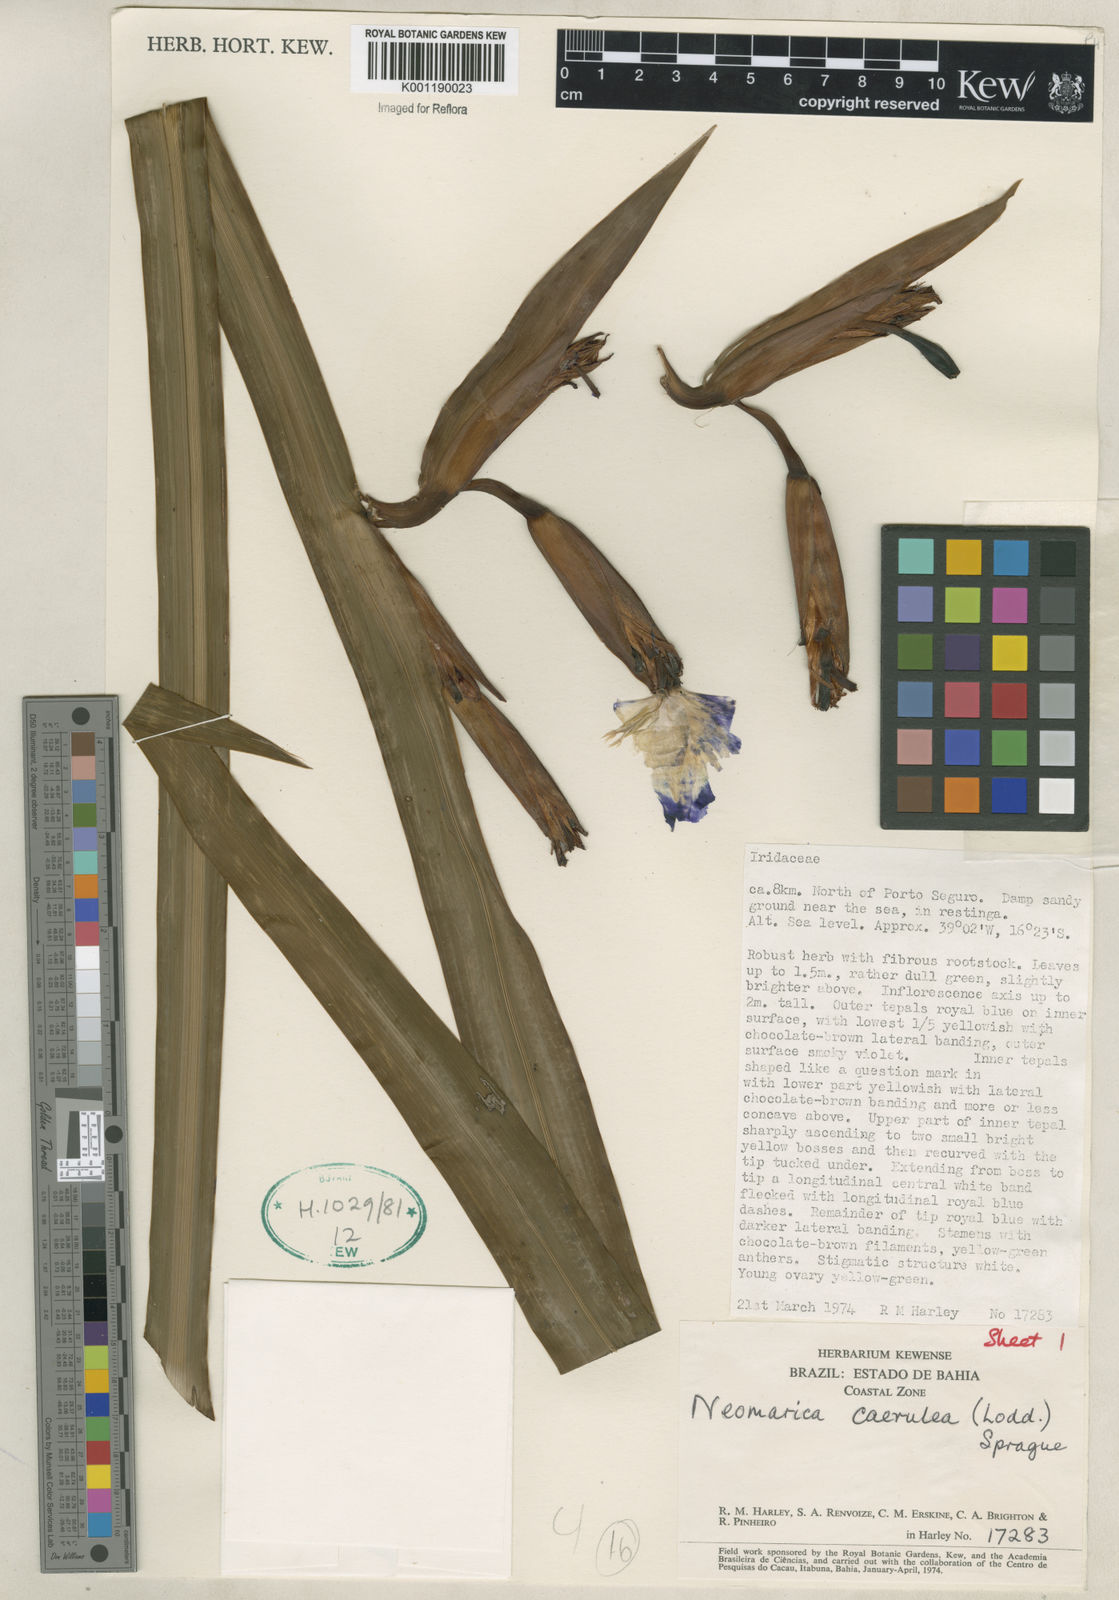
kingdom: Plantae
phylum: Tracheophyta
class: Liliopsida
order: Asparagales
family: Iridaceae
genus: Trimezia
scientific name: Trimezia
